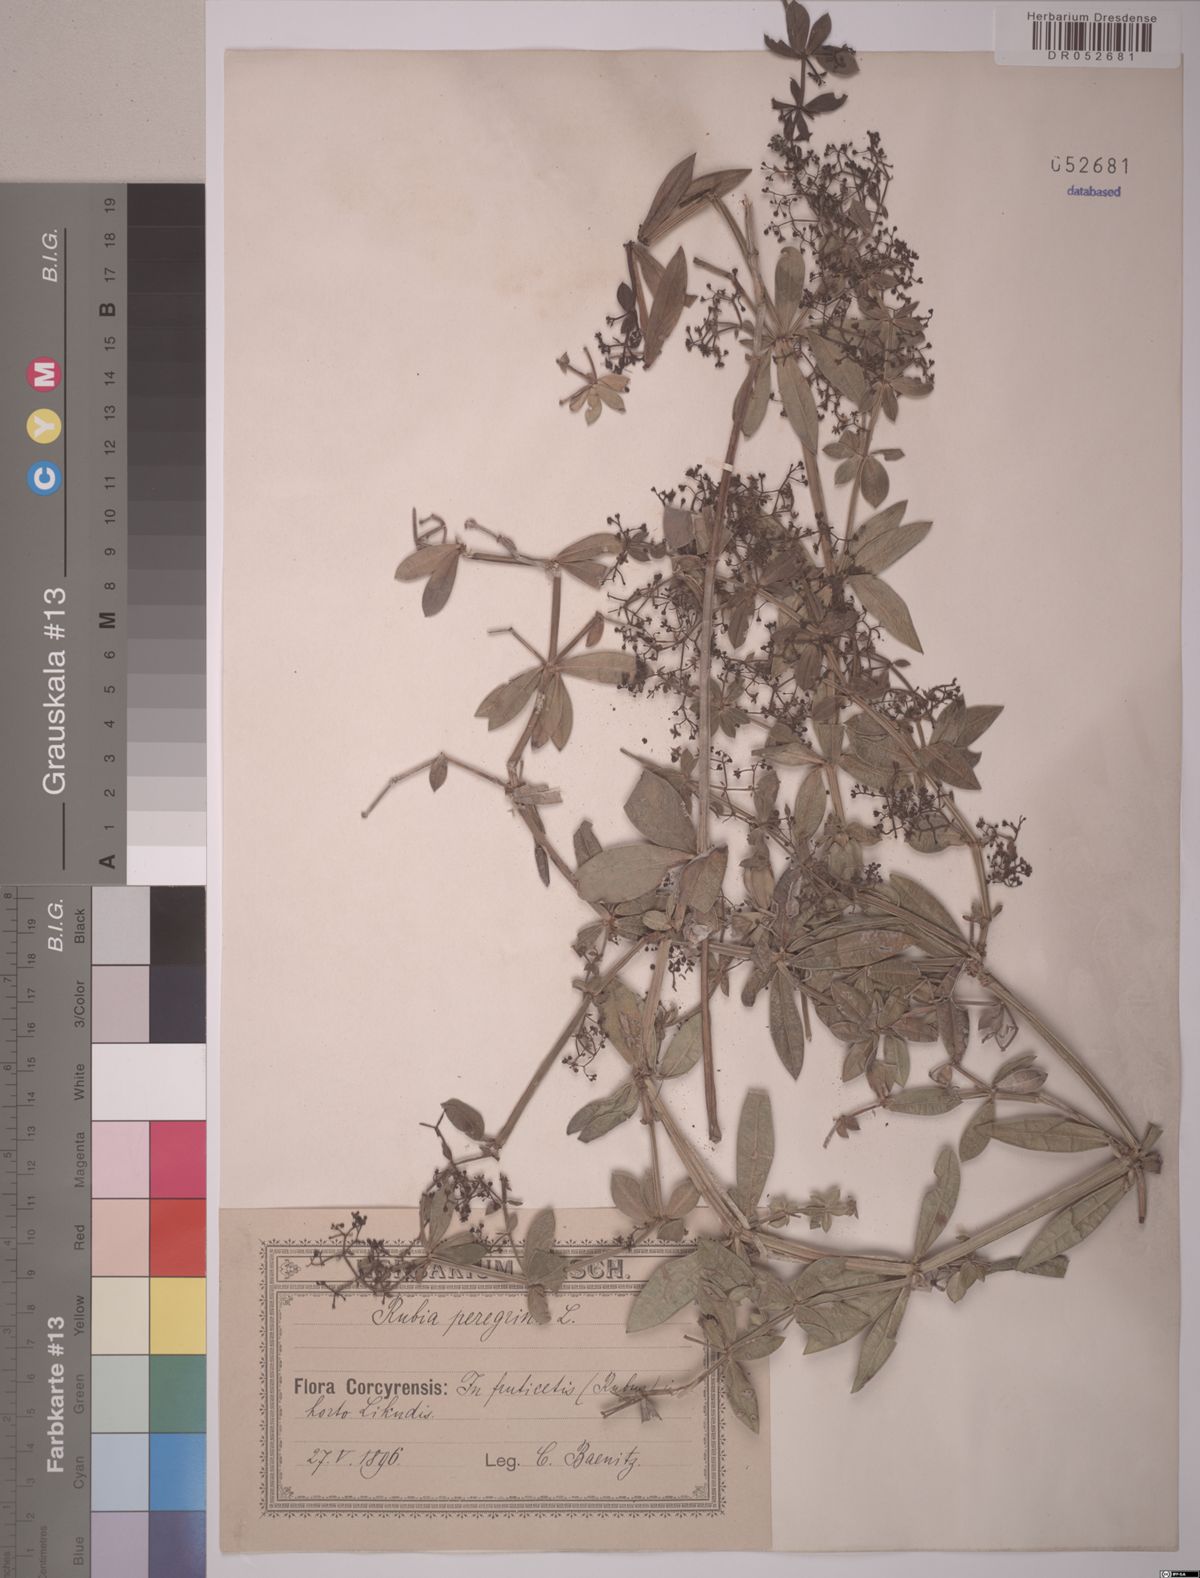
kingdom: Plantae
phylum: Tracheophyta
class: Magnoliopsida
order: Gentianales
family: Rubiaceae
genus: Rubia
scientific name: Rubia peregrina
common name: Wild madder
